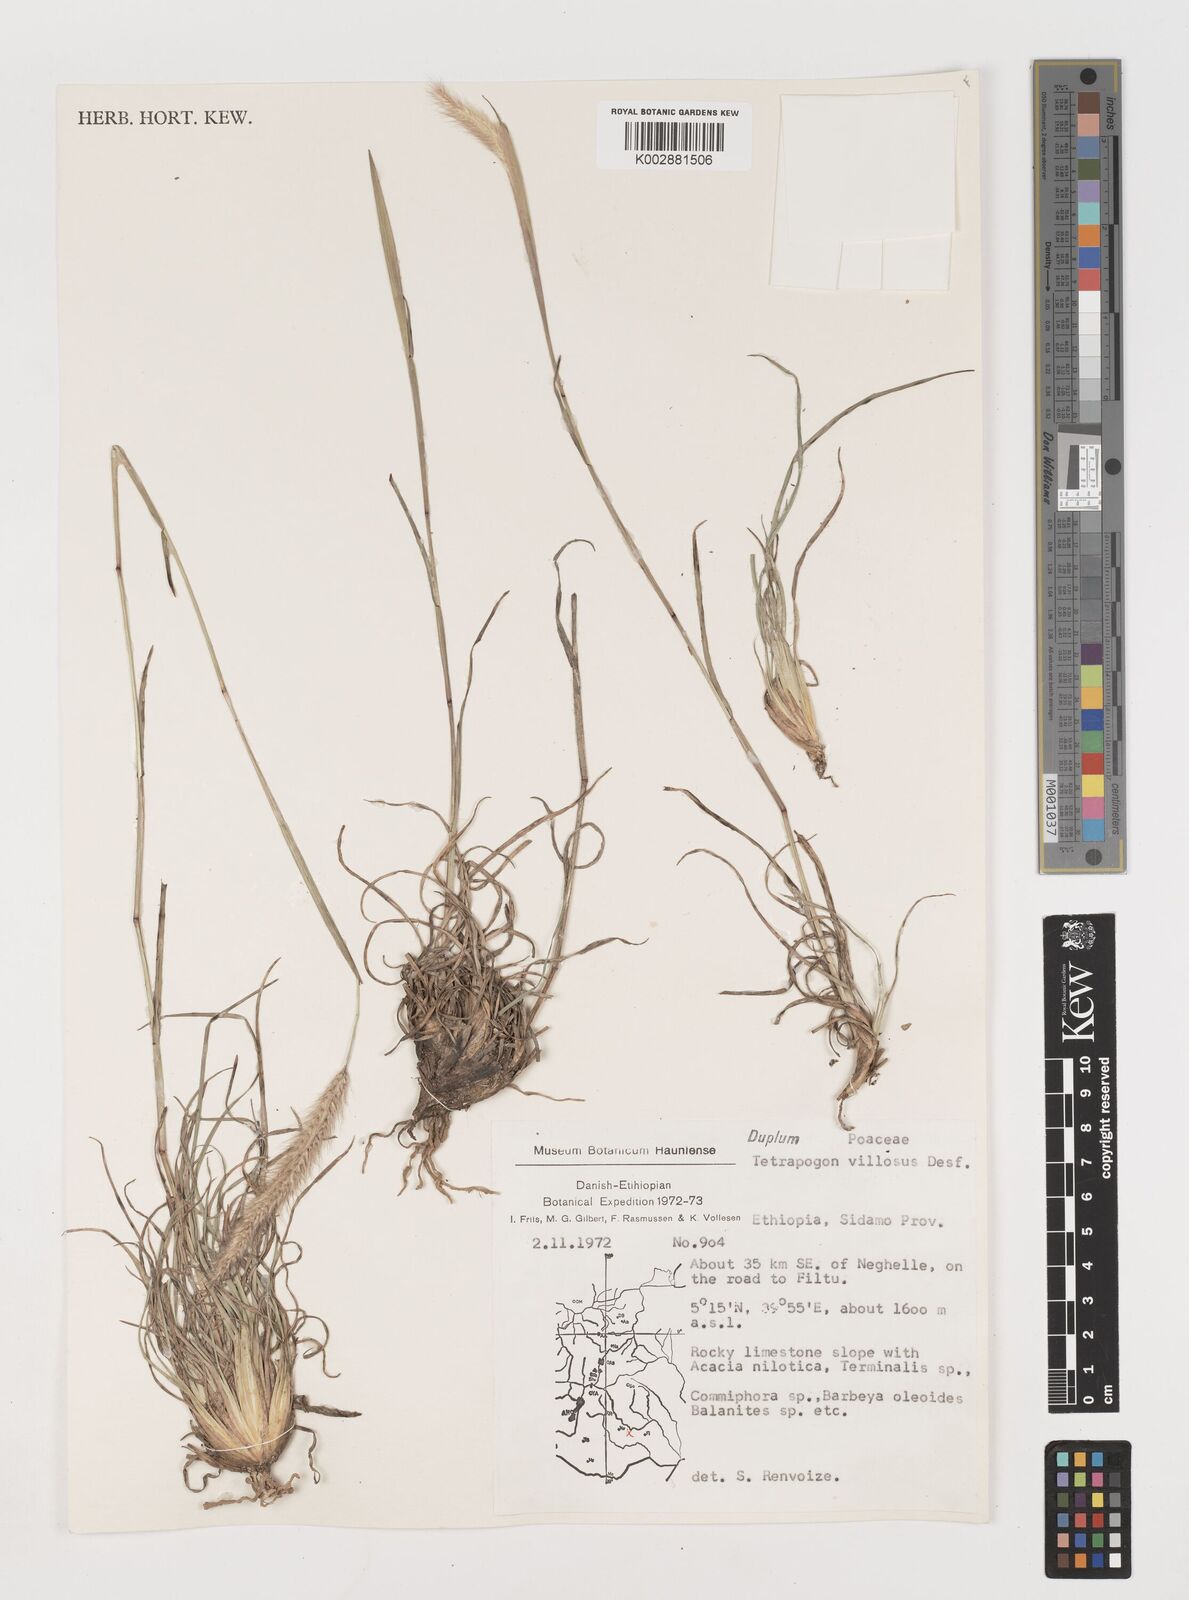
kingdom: Plantae
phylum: Tracheophyta
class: Liliopsida
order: Poales
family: Poaceae
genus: Tetrapogon
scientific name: Tetrapogon villosus
